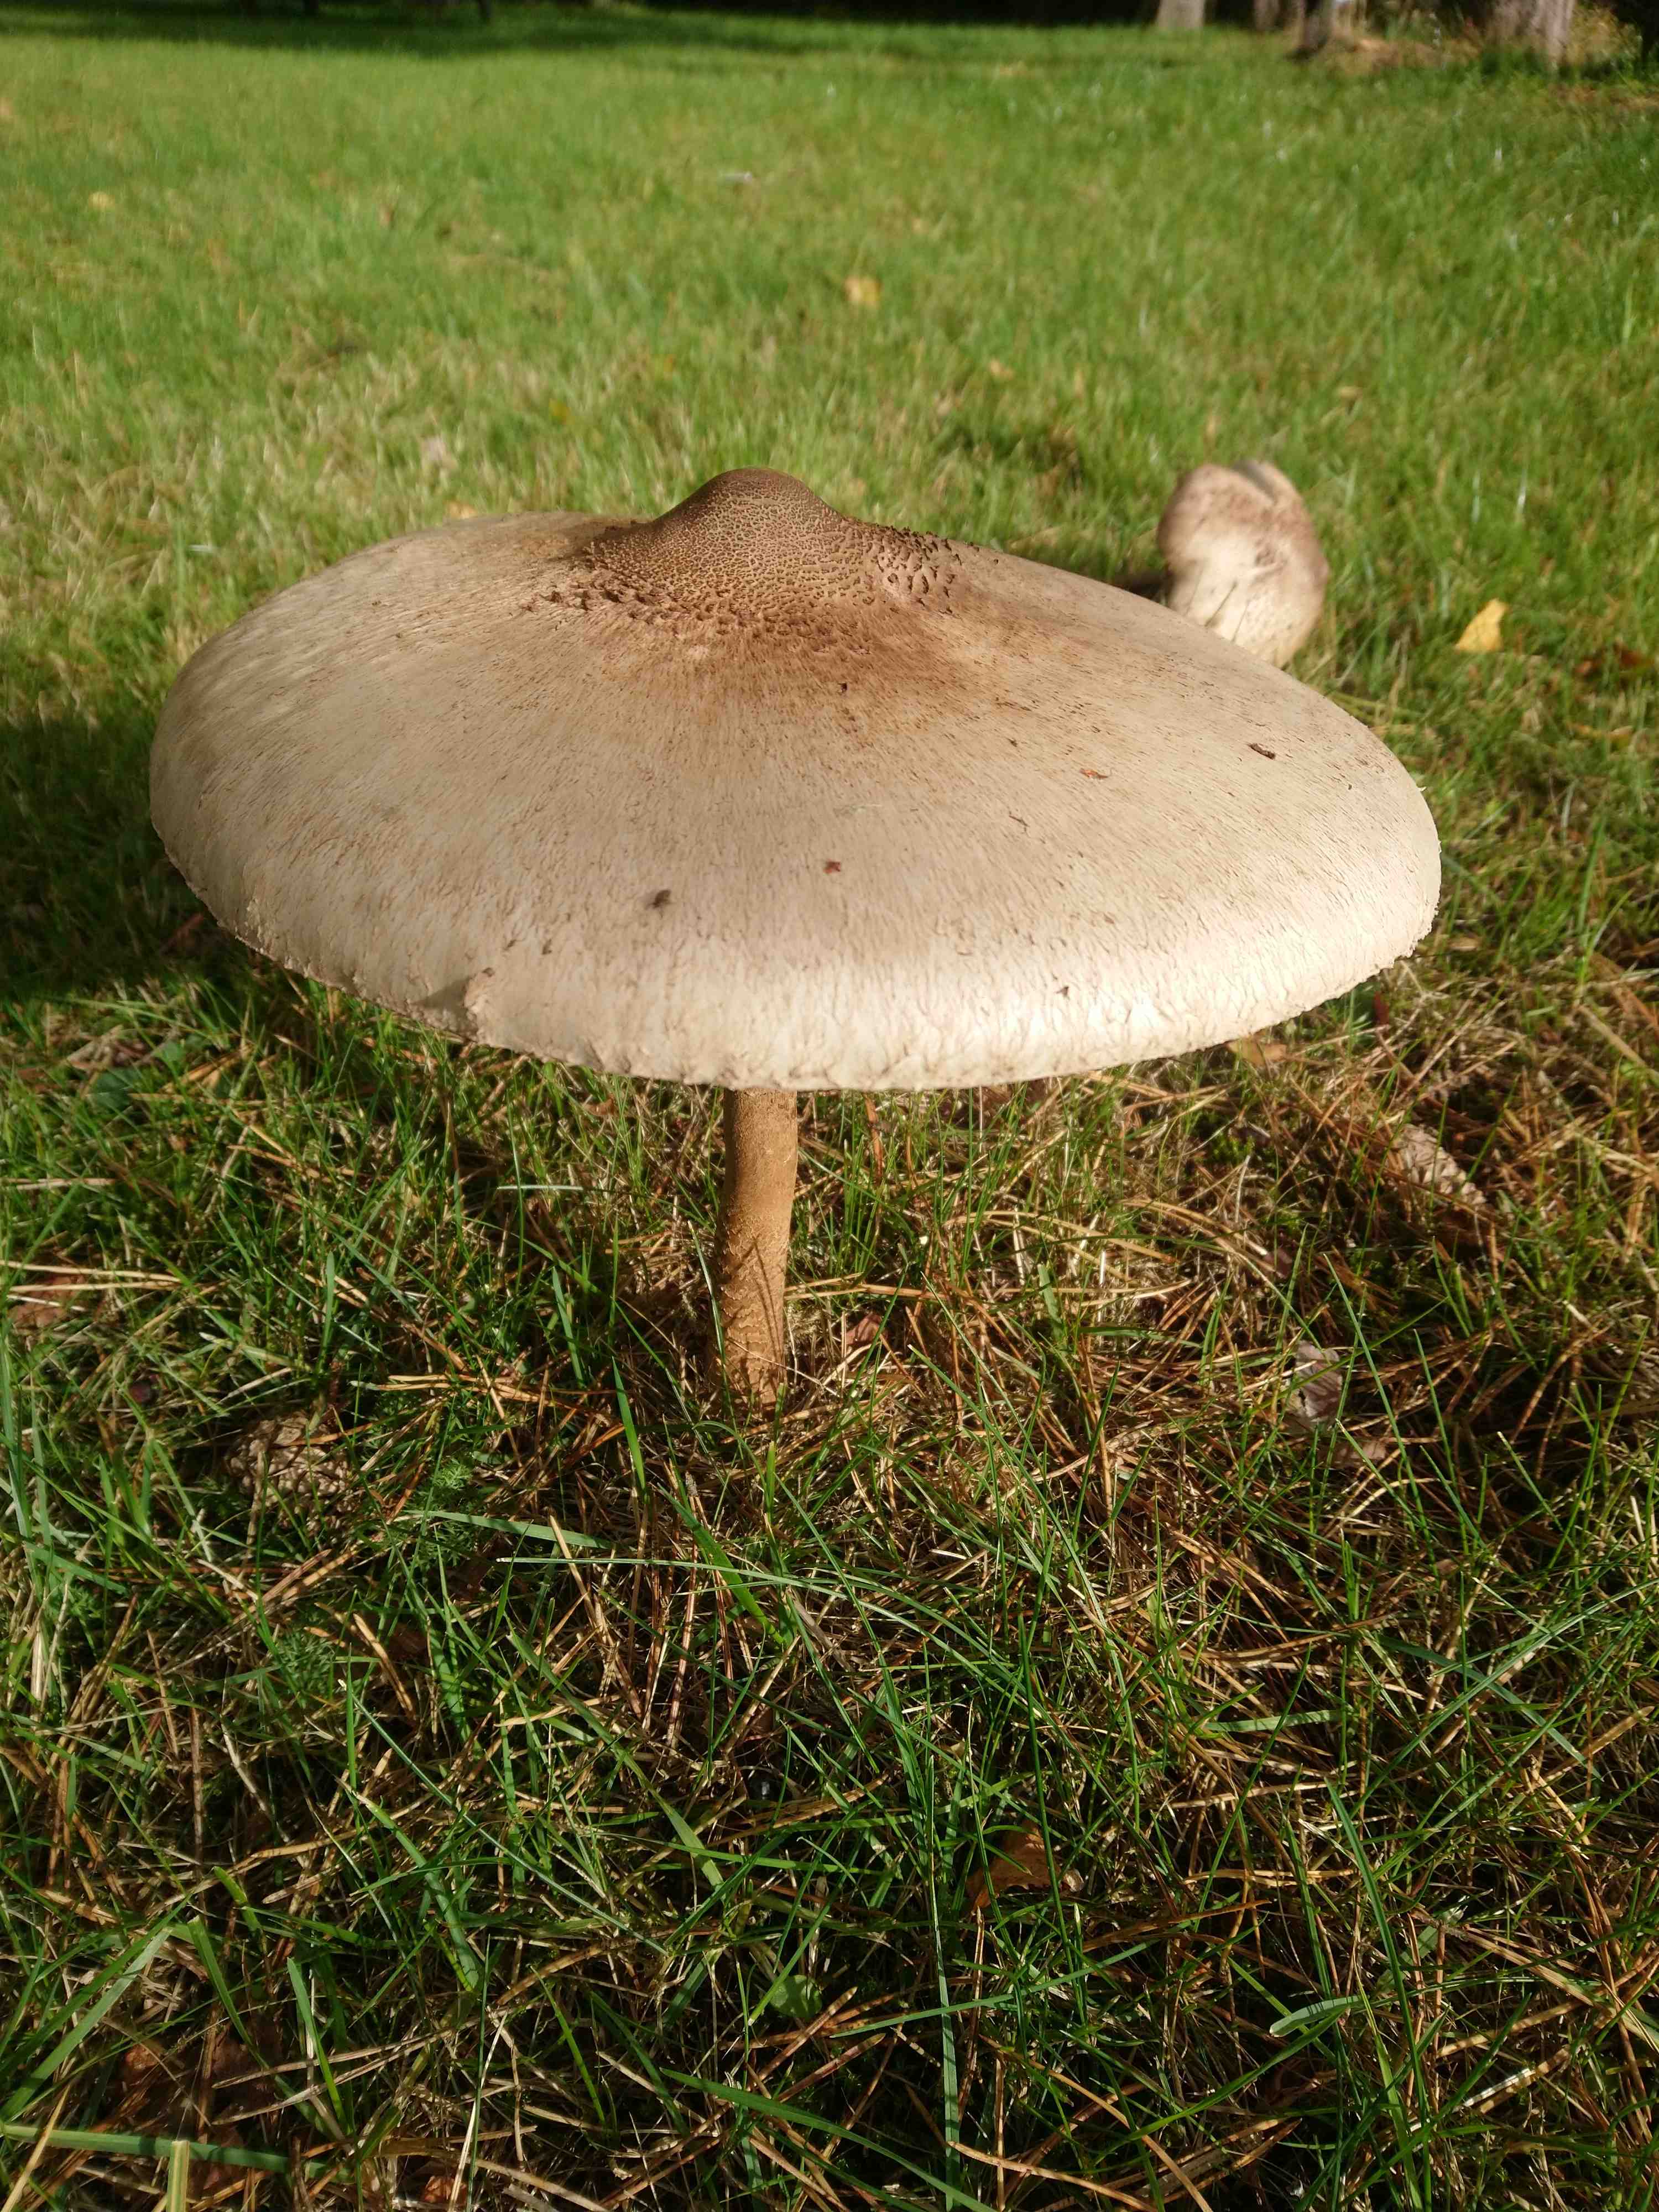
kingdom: Fungi
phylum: Basidiomycota
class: Agaricomycetes
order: Agaricales
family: Agaricaceae
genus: Macrolepiota
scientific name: Macrolepiota
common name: kæmpeparasolhat
